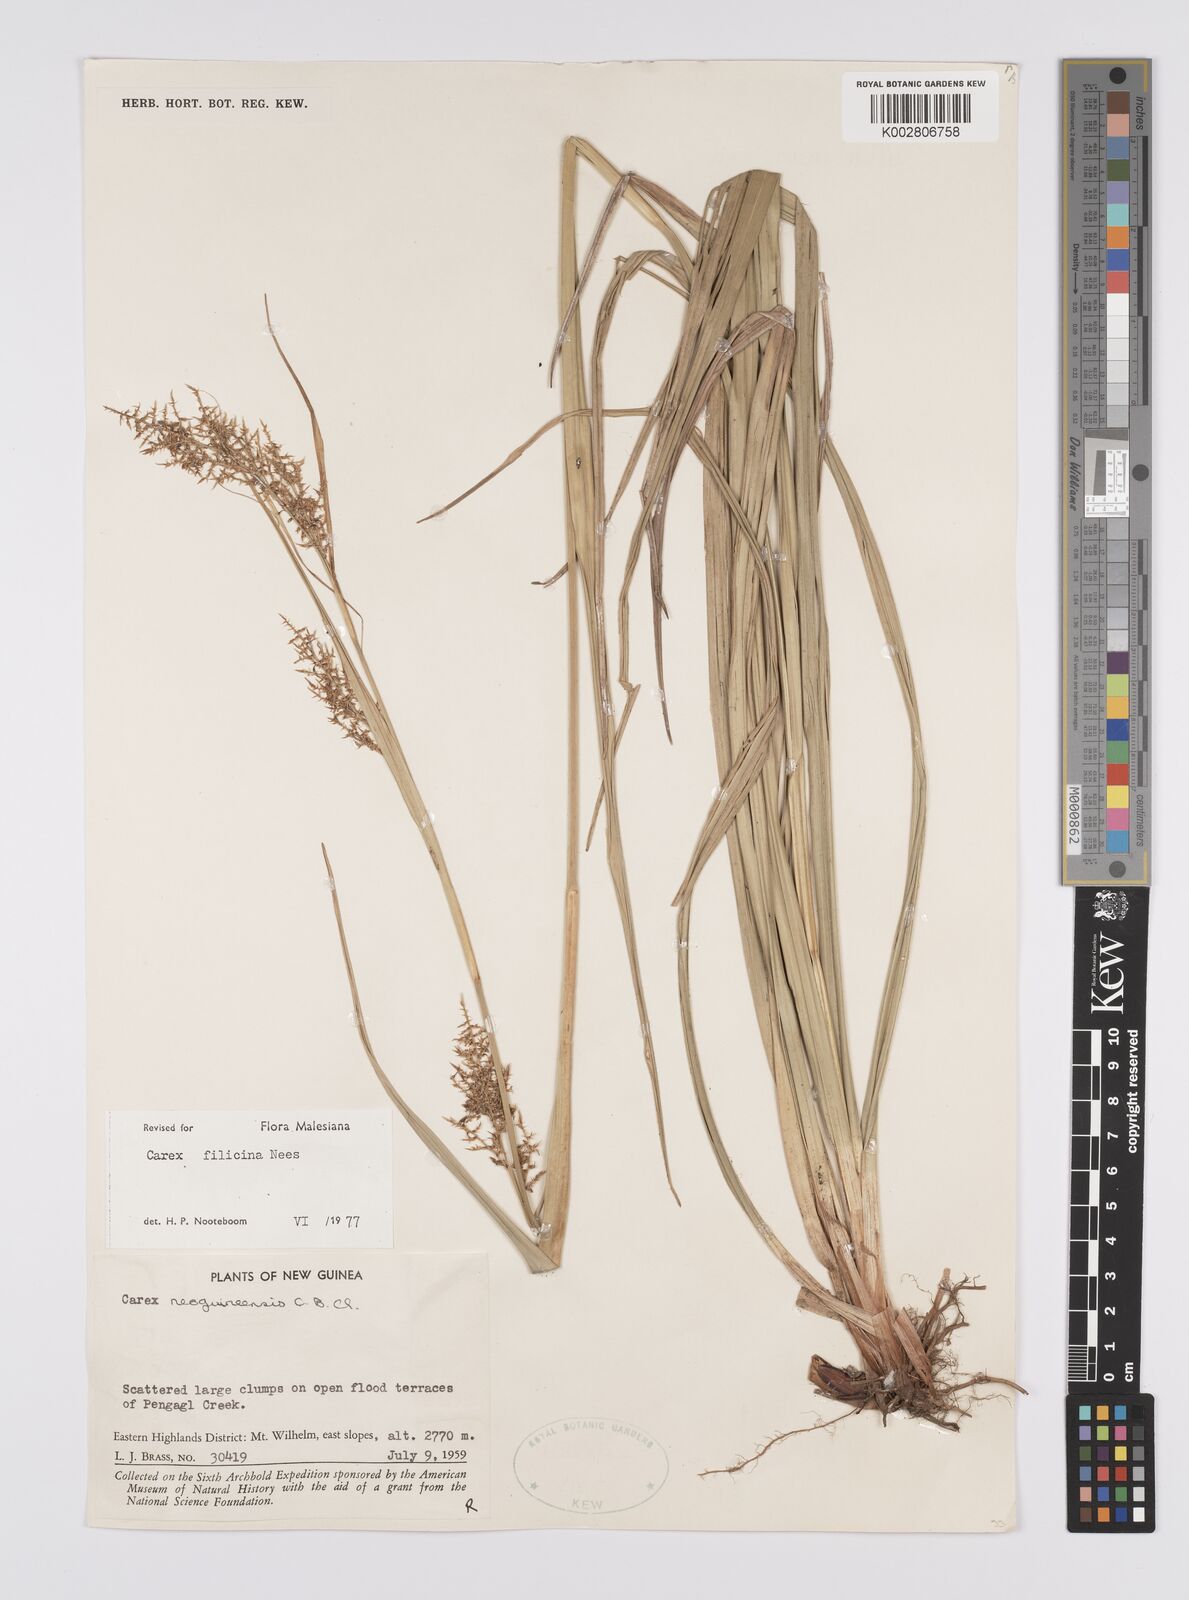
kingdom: Plantae
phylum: Tracheophyta
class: Liliopsida
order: Poales
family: Cyperaceae
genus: Carex
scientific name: Carex filicina
